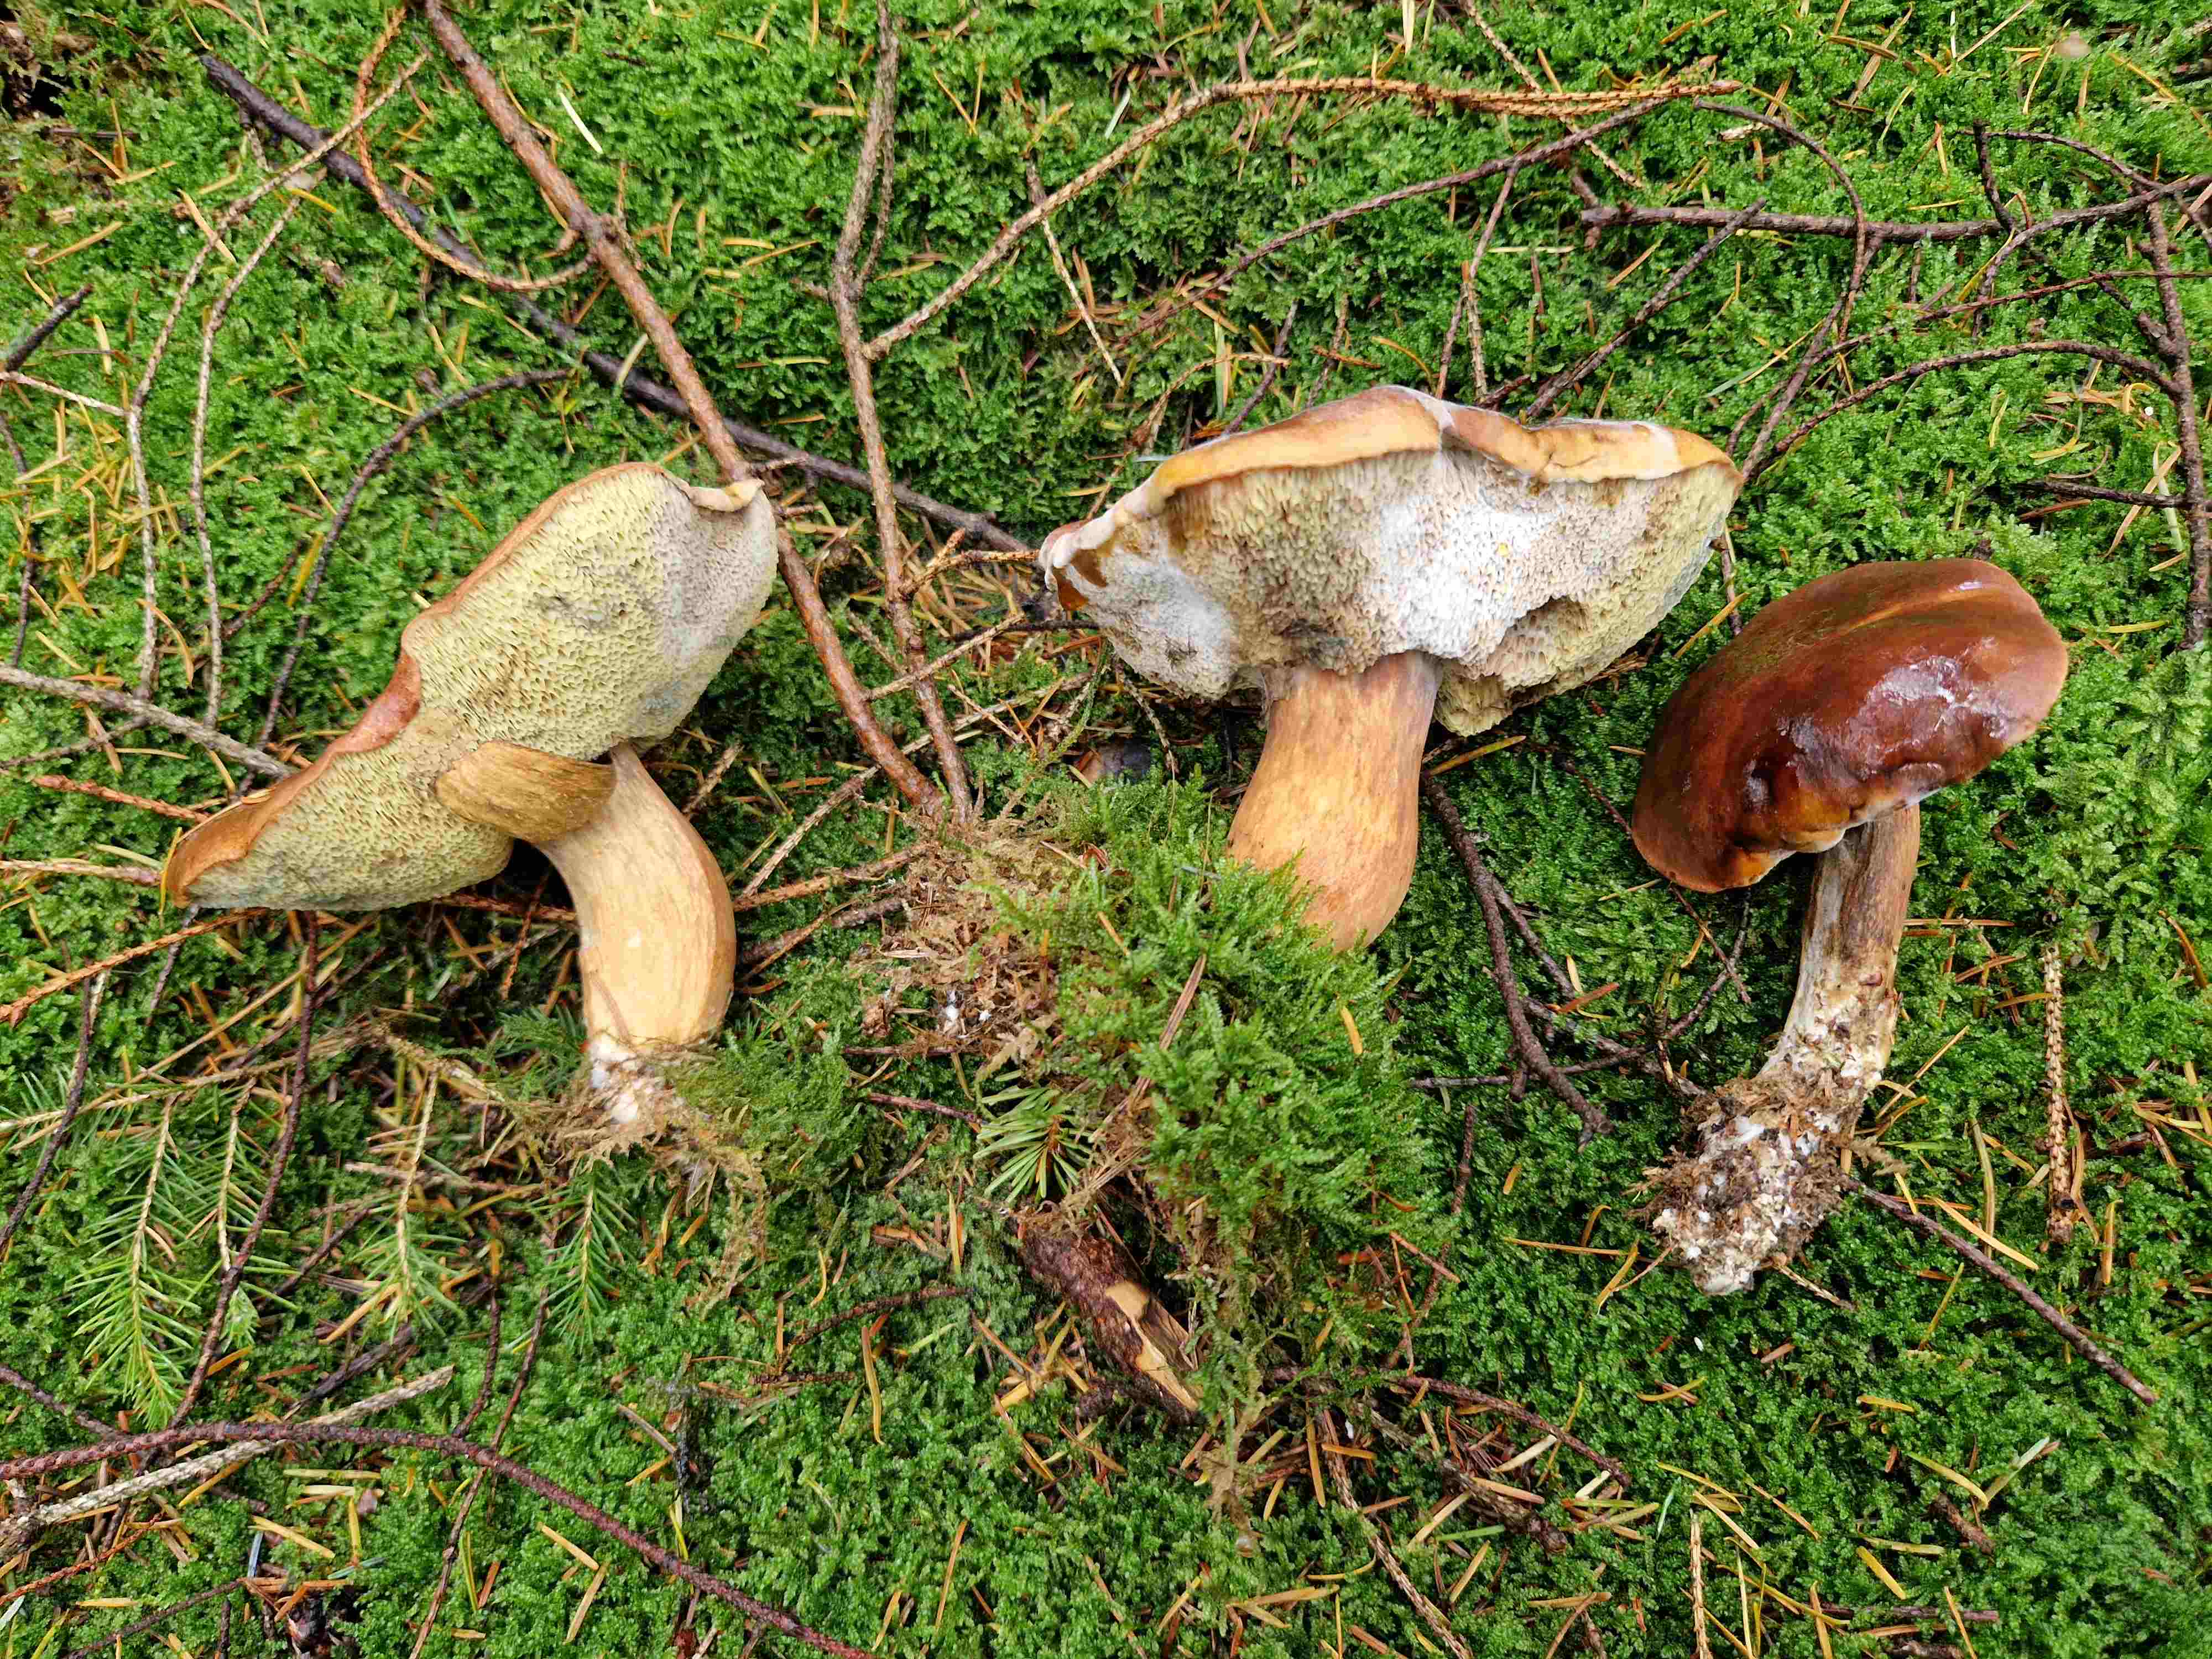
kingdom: Fungi
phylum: Basidiomycota
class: Agaricomycetes
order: Boletales
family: Boletaceae
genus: Imleria
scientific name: Imleria badia
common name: brunstokket rørhat
